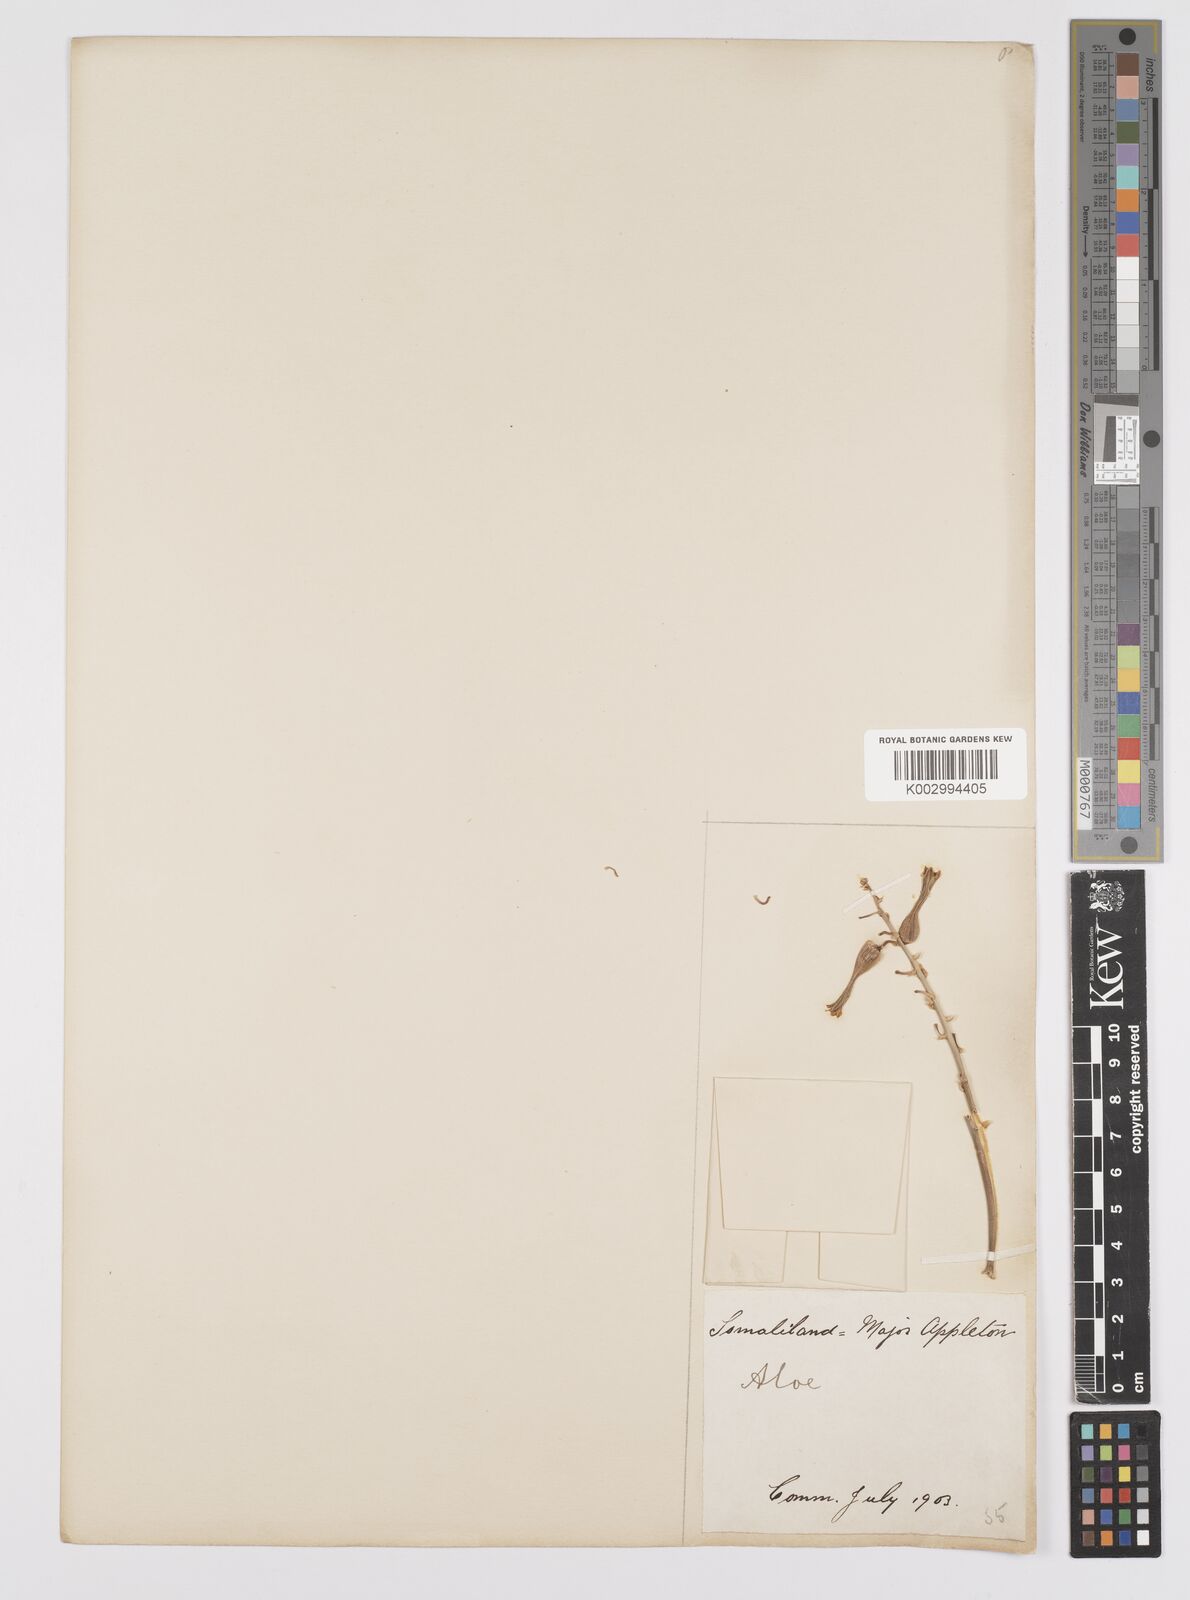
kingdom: Plantae
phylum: Tracheophyta
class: Liliopsida
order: Asparagales
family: Asphodelaceae
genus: Aloe
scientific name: Aloe
